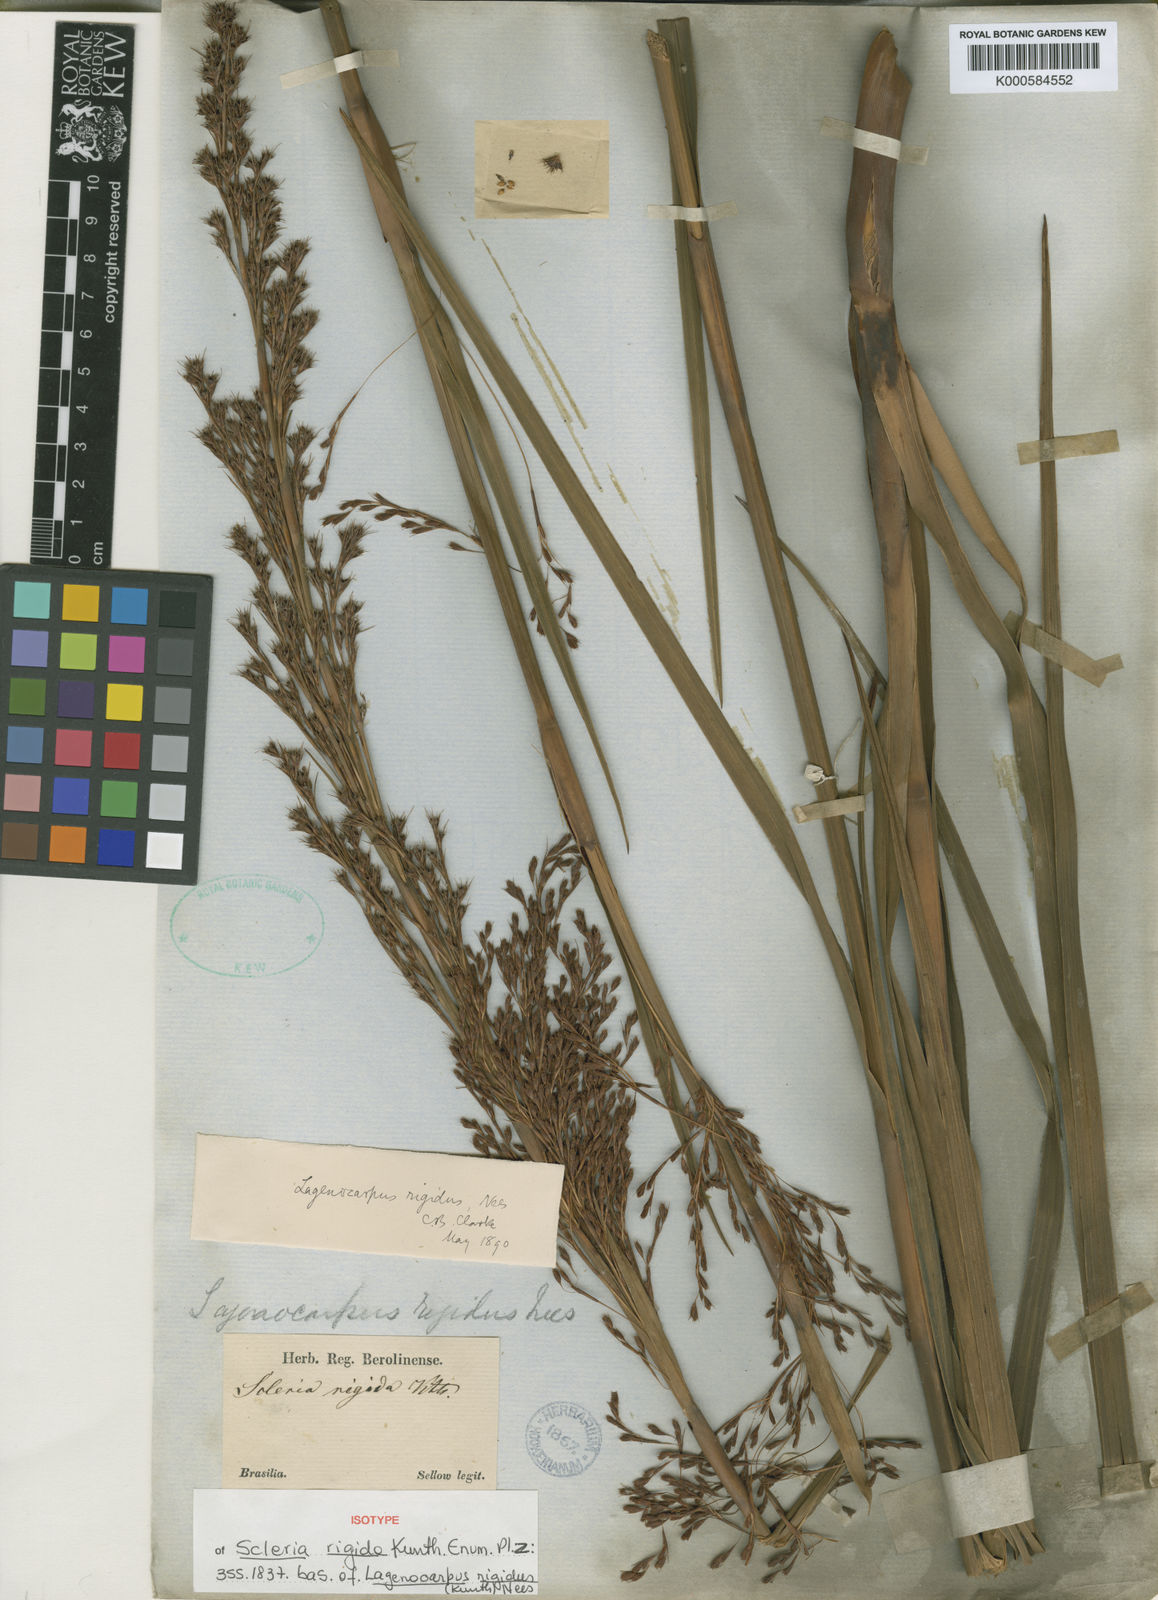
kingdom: Plantae
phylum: Tracheophyta
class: Liliopsida
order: Poales
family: Cyperaceae
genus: Lagenocarpus
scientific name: Lagenocarpus rigidus
